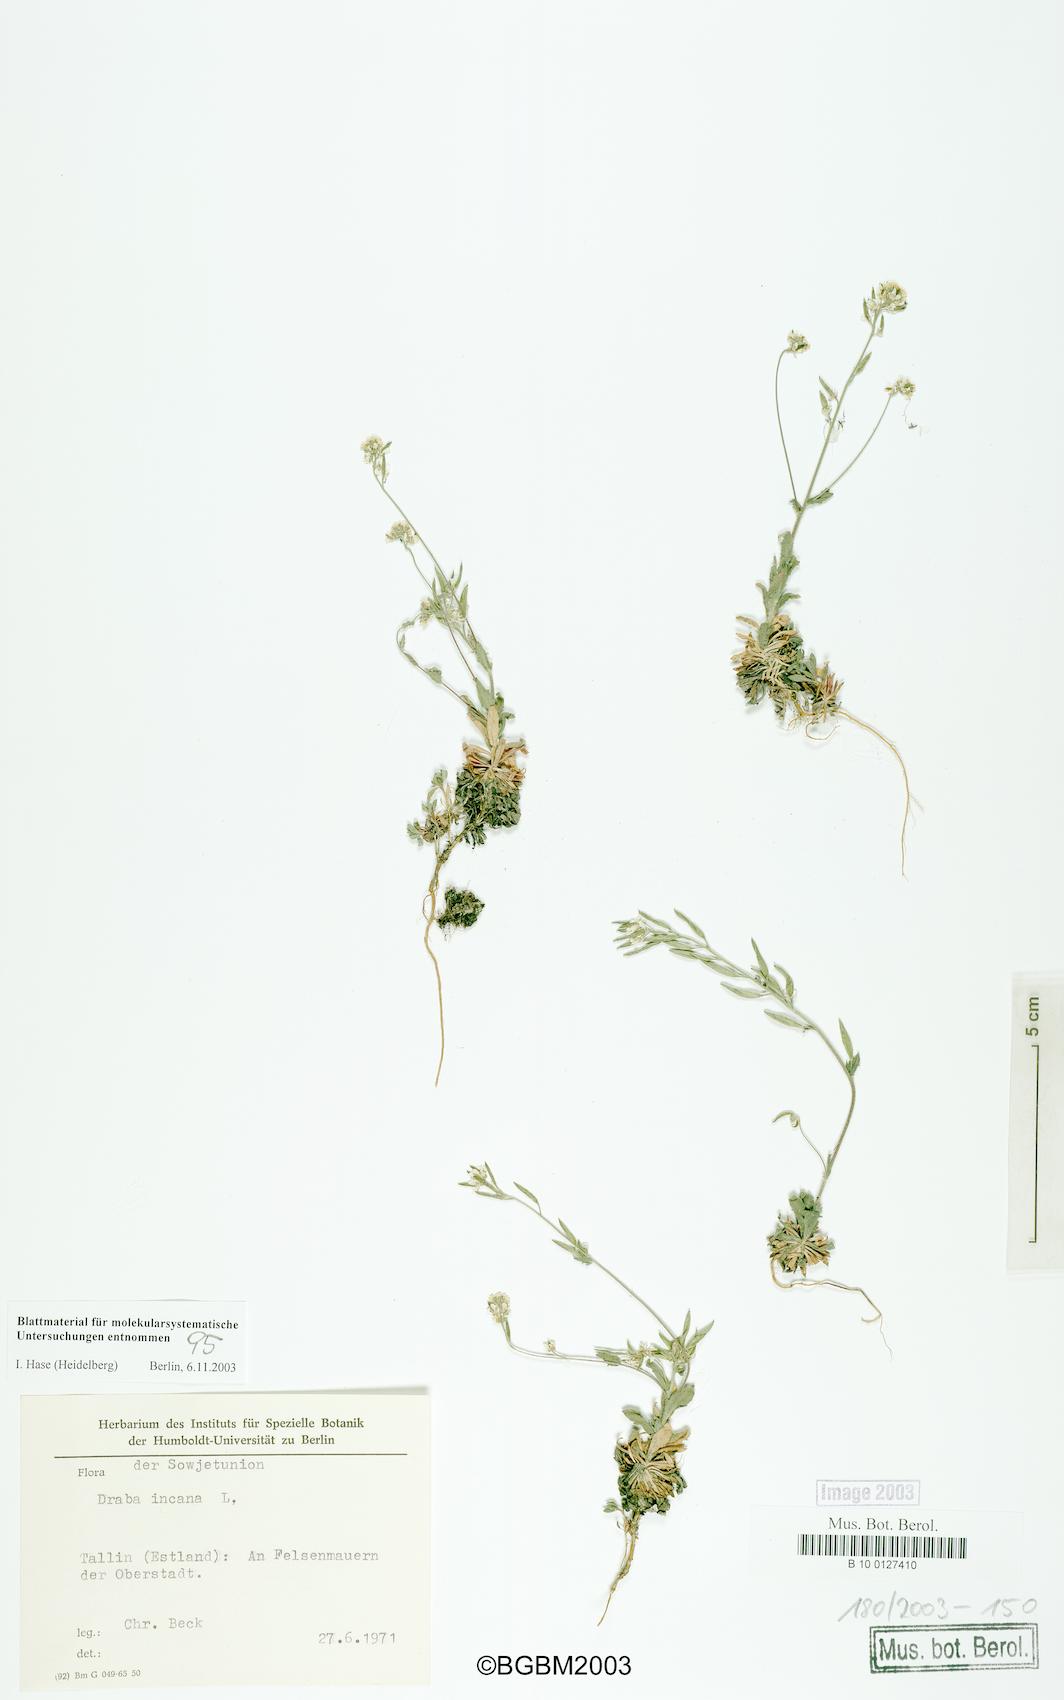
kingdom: Plantae
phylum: Tracheophyta
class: Magnoliopsida
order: Brassicales
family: Brassicaceae
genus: Draba
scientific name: Draba incana
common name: Hoary whitlow-grass
